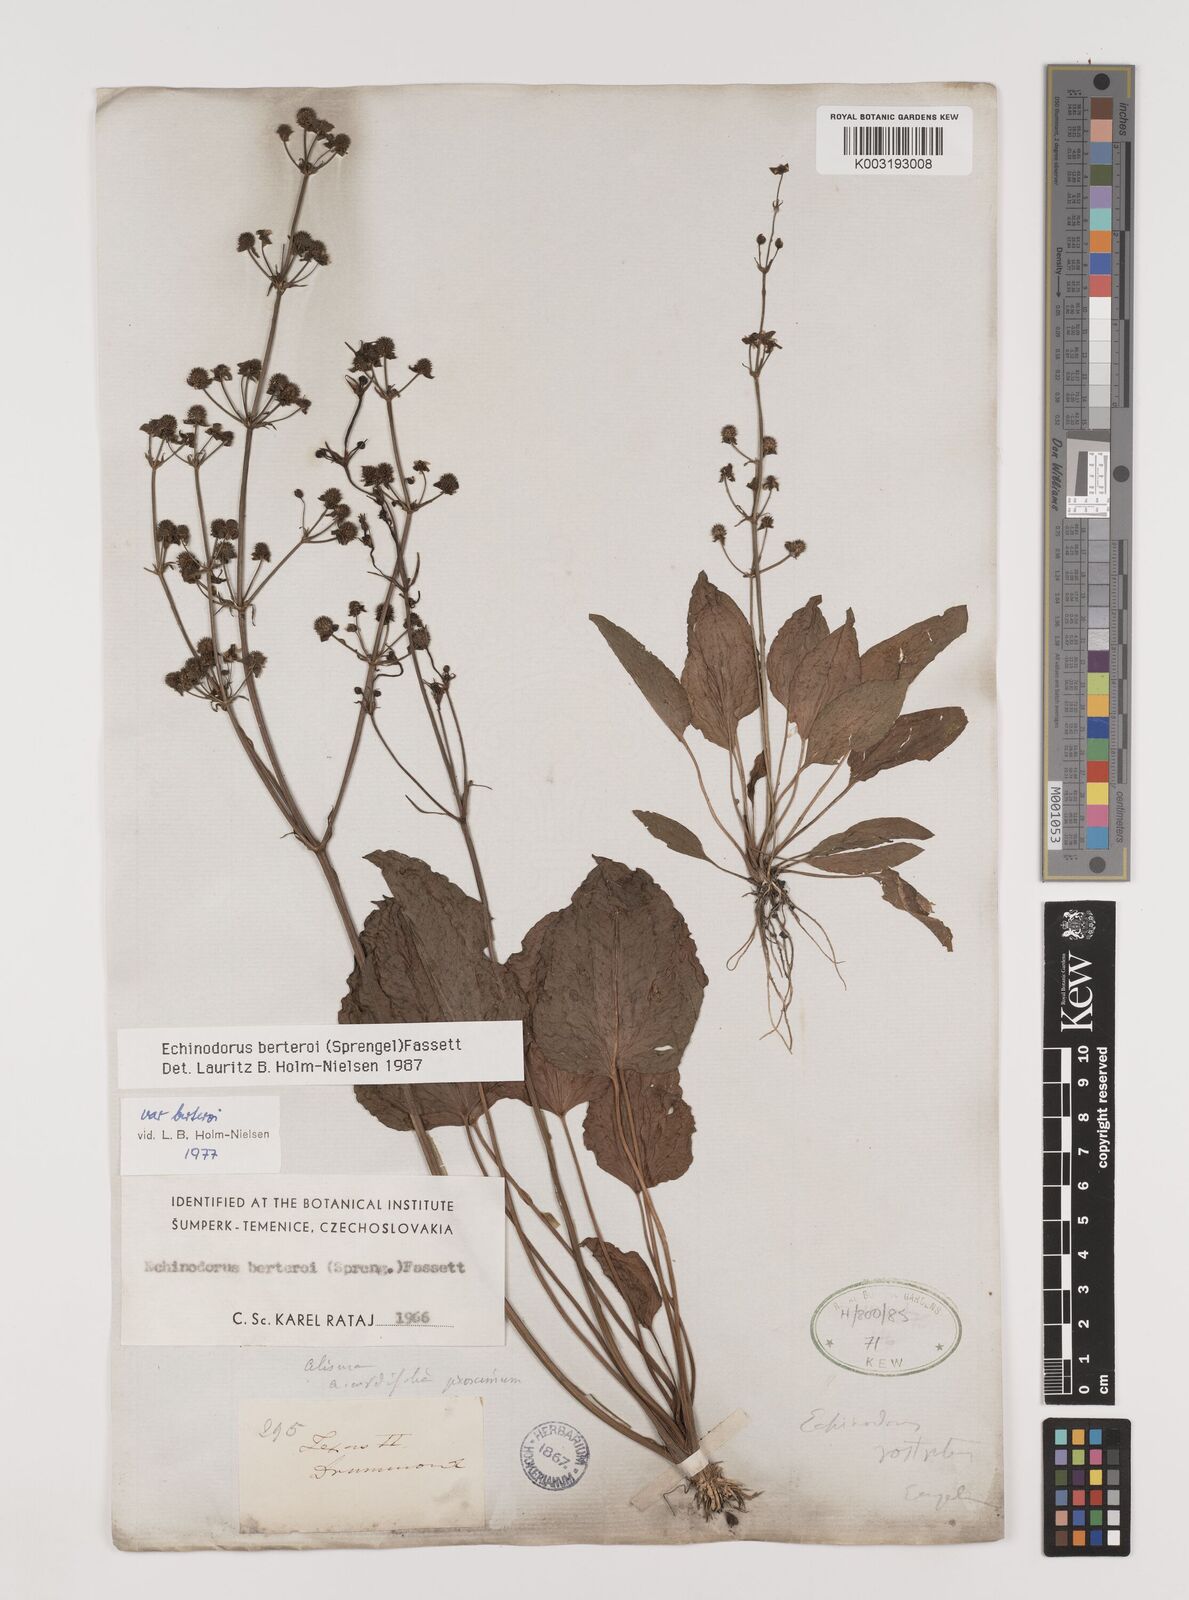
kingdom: Plantae
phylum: Tracheophyta
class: Liliopsida
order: Alismatales
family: Alismataceae
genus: Echinodorus
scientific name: Echinodorus berteroi
